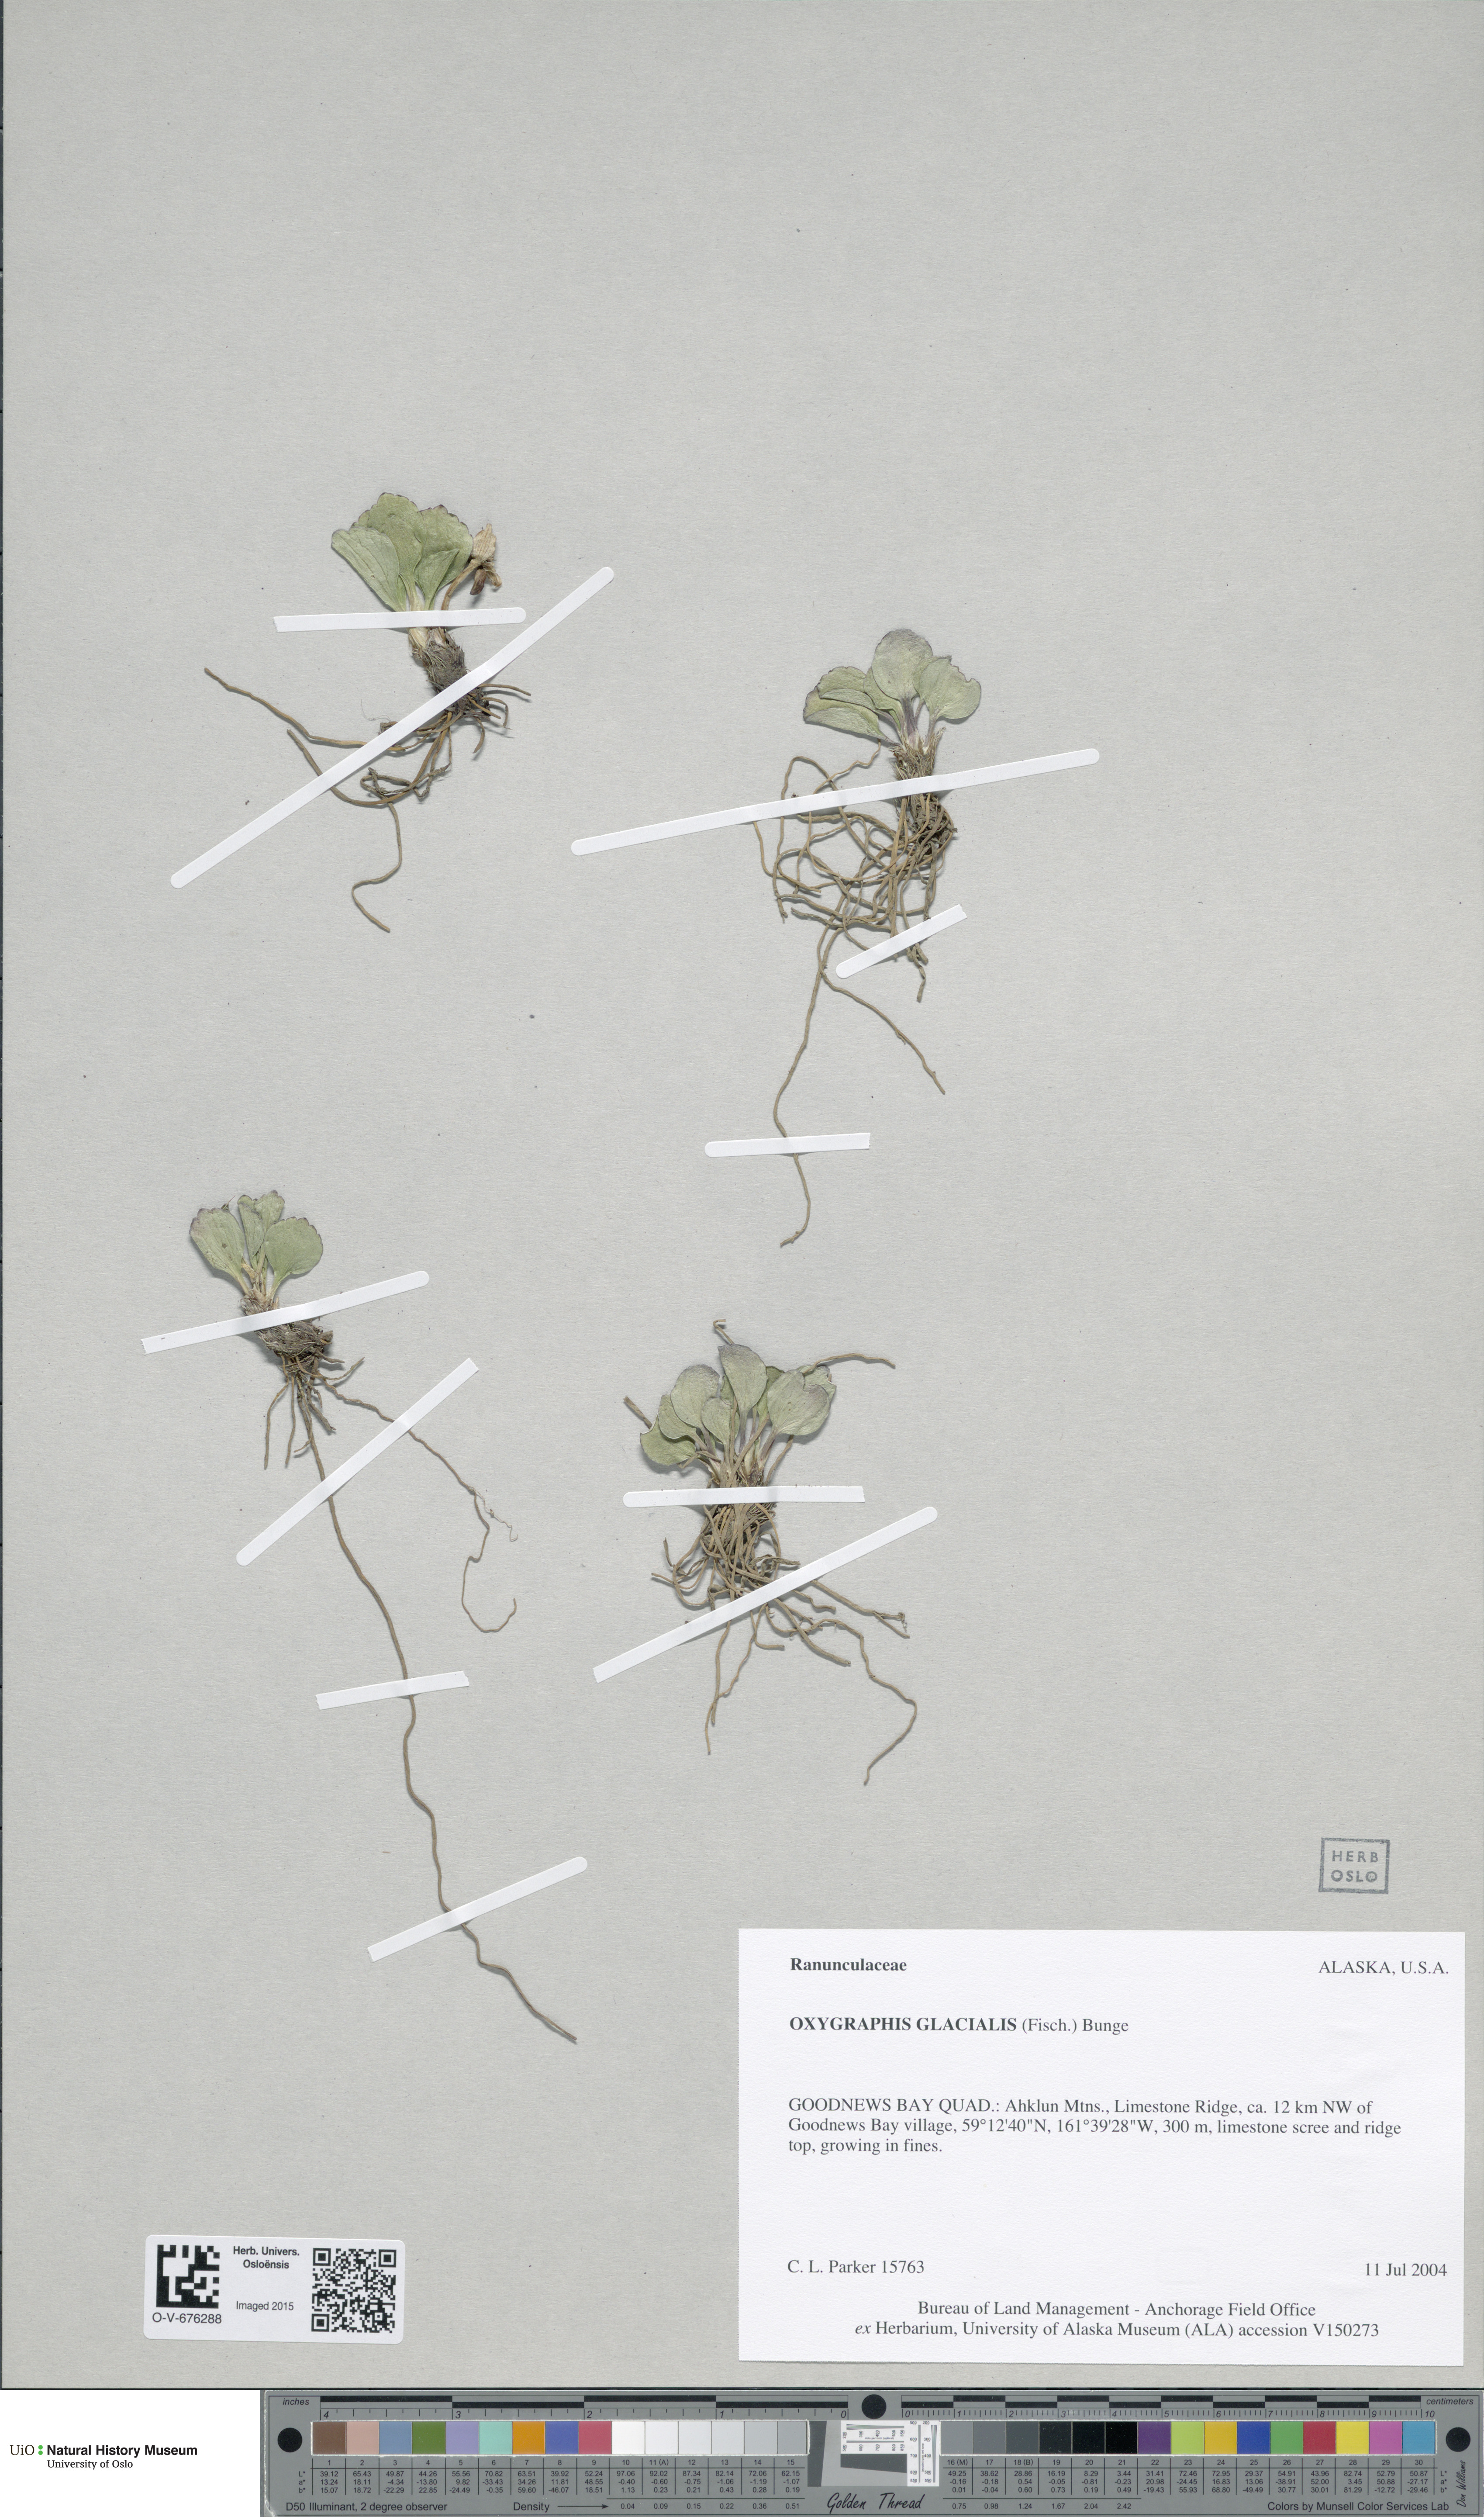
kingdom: Plantae
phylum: Tracheophyta
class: Magnoliopsida
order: Ranunculales
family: Ranunculaceae
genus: Oxygraphis
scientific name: Oxygraphis kamchatica
